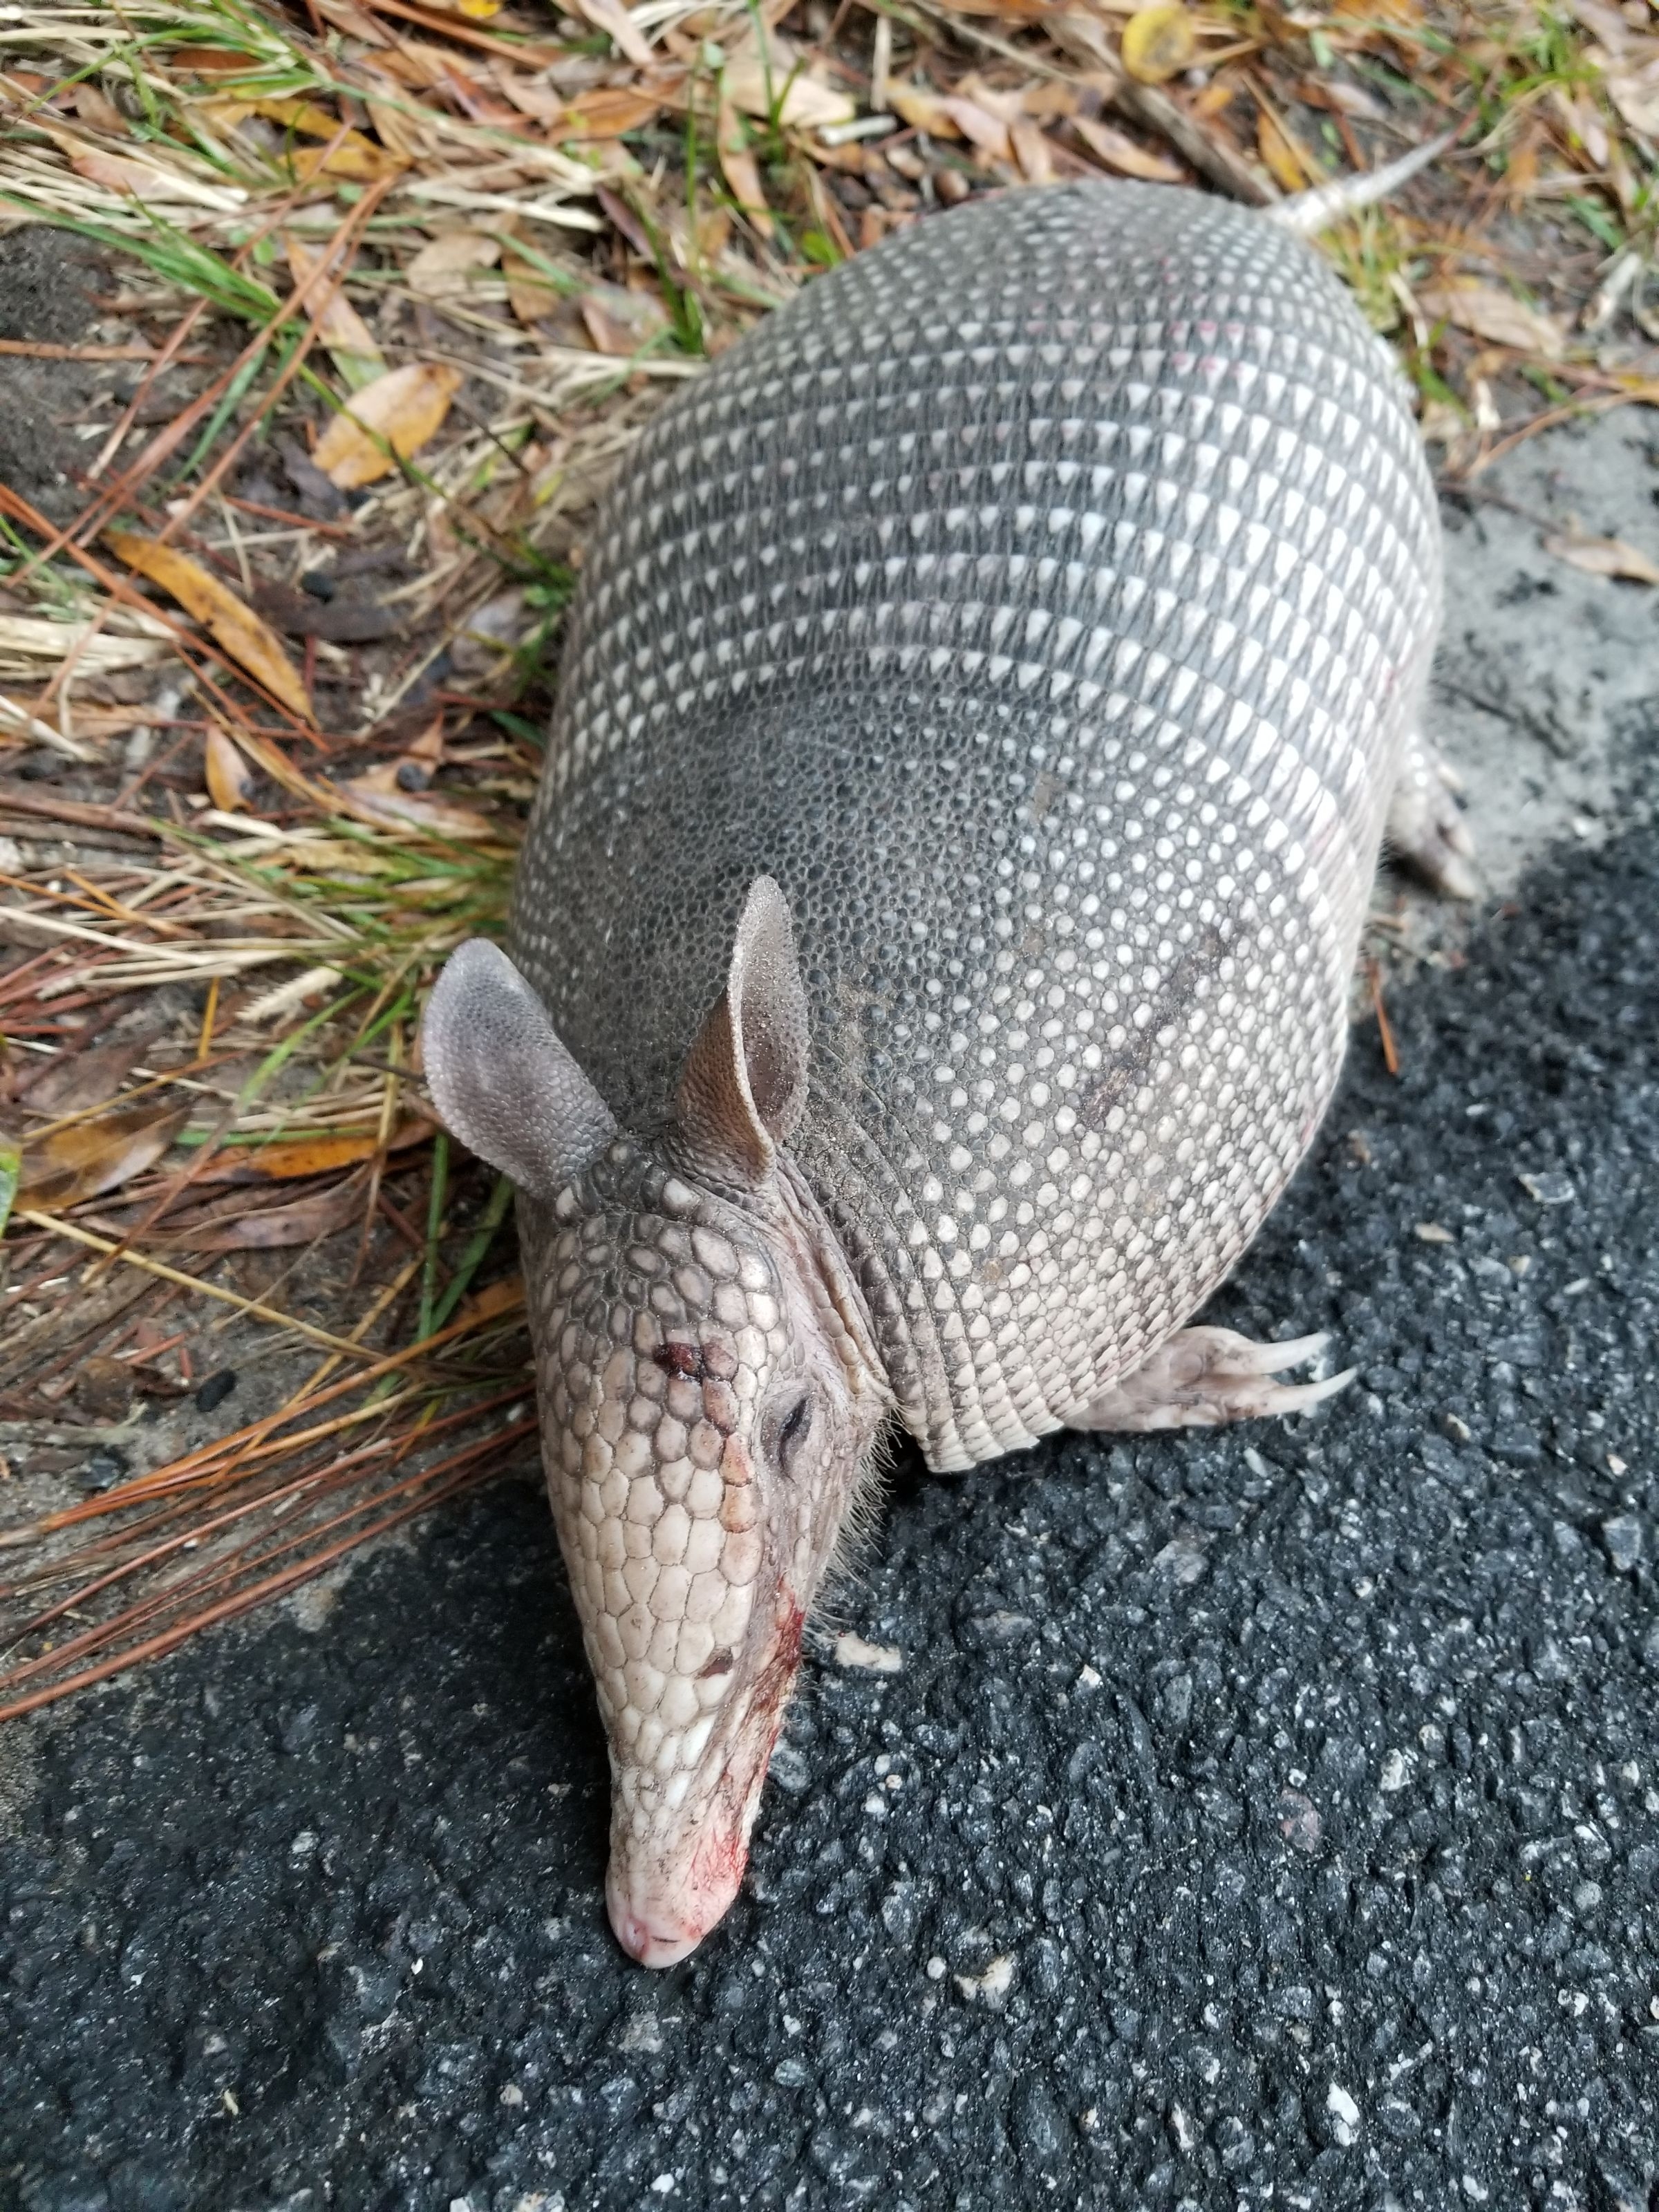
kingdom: Animalia
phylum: Chordata
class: Mammalia
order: Cingulata
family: Dasypodidae
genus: Dasypus
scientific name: Dasypus novemcinctus
